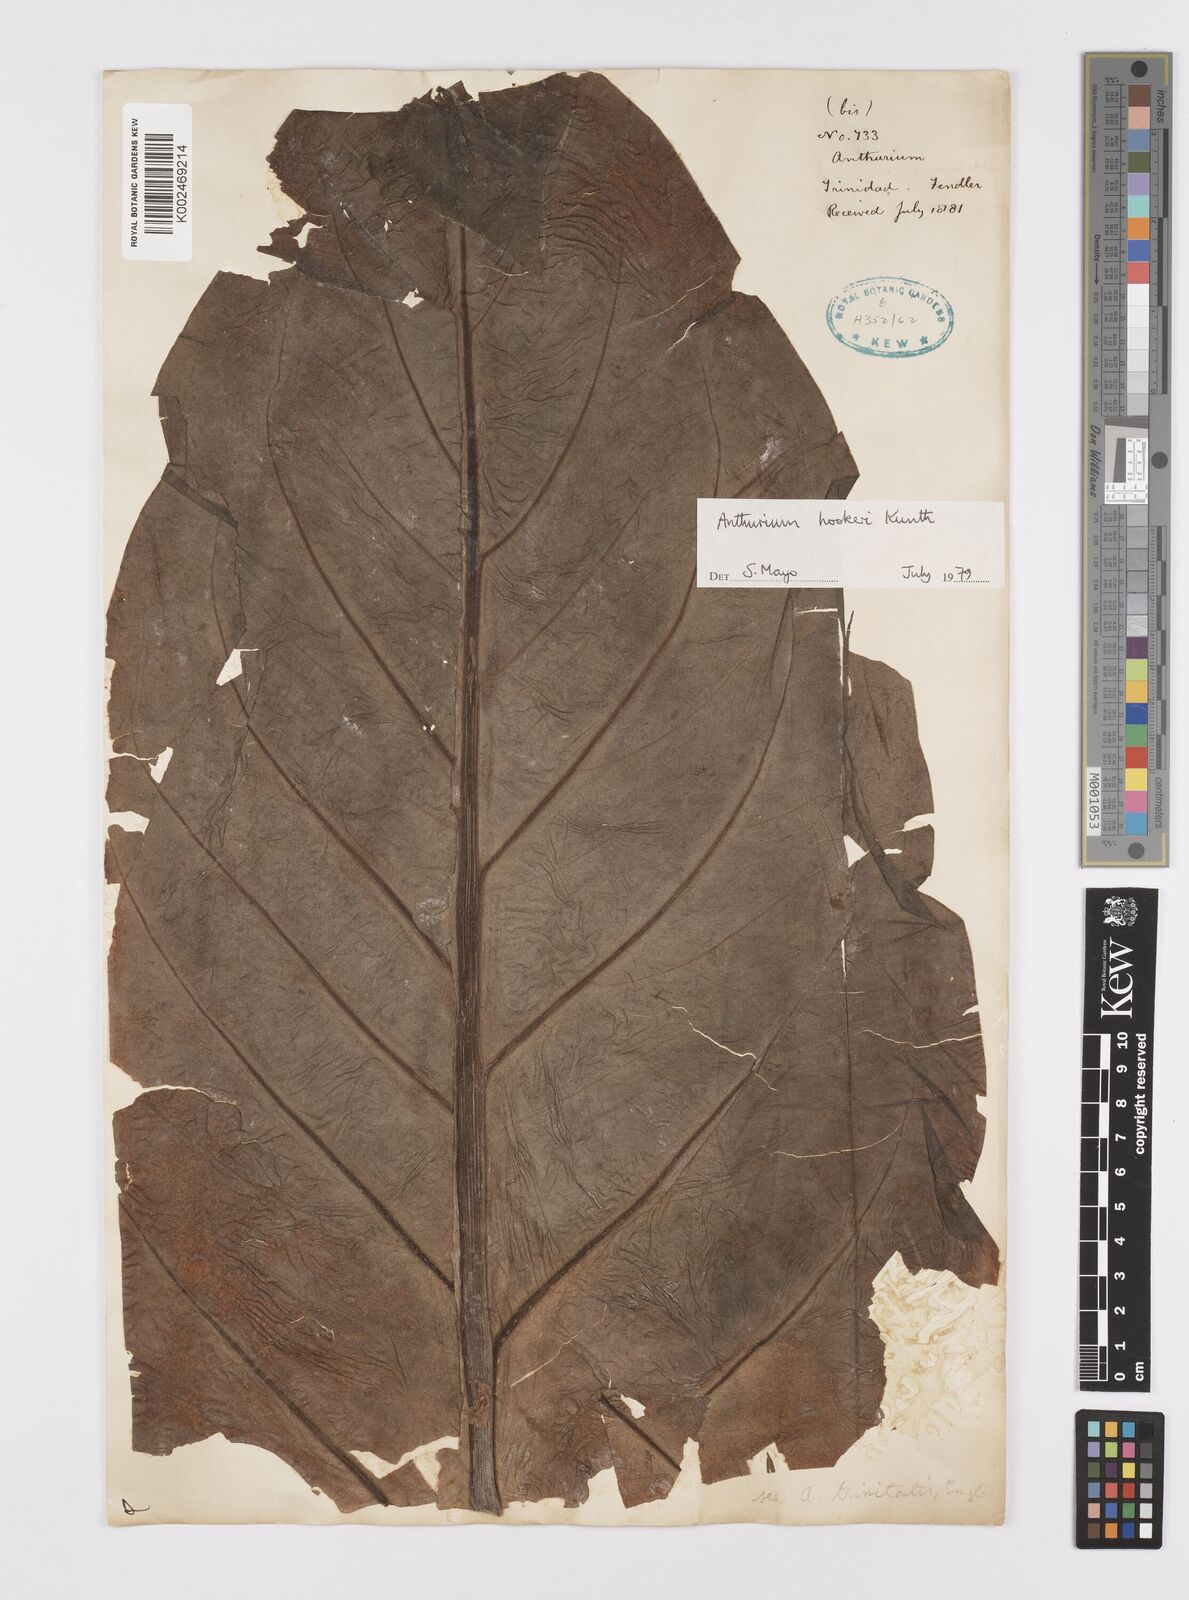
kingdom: Plantae
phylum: Tracheophyta
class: Liliopsida
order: Alismatales
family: Araceae
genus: Anthurium
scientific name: Anthurium hookeri
